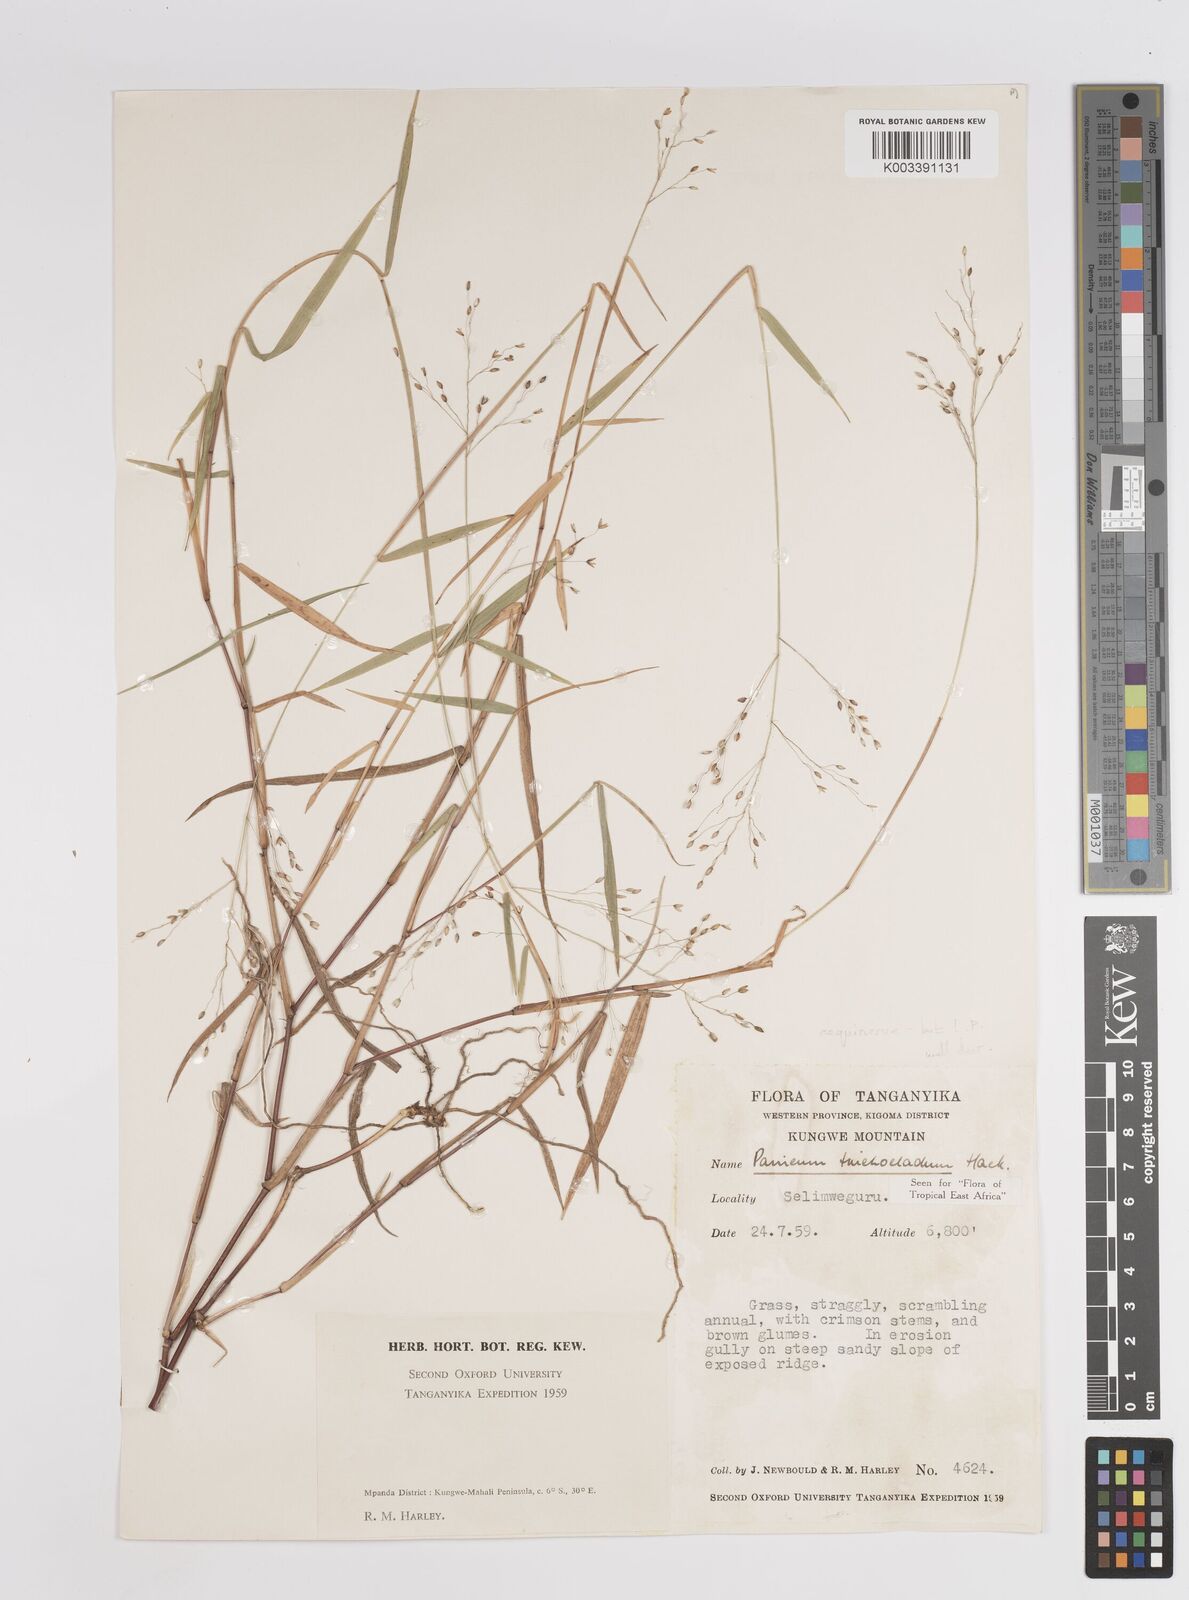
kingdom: Plantae
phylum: Tracheophyta
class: Liliopsida
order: Poales
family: Poaceae
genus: Panicum
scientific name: Panicum chionachne
